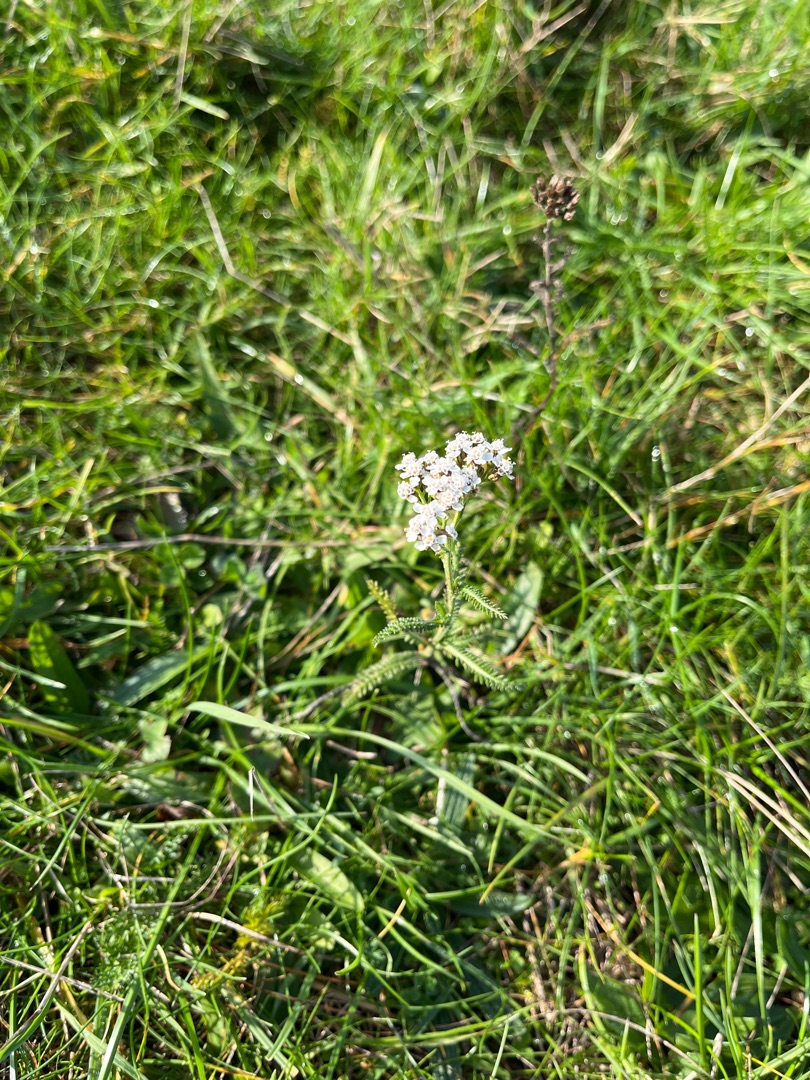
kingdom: Plantae
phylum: Tracheophyta
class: Magnoliopsida
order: Asterales
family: Asteraceae
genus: Achillea
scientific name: Achillea millefolium
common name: Almindelig røllike
